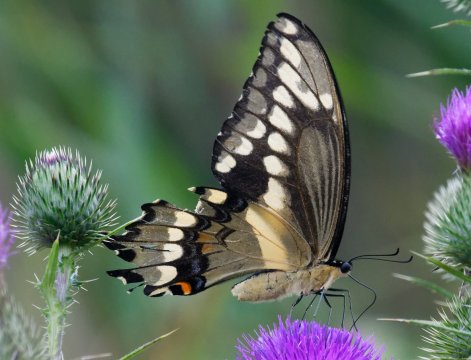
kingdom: Animalia
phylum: Arthropoda
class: Insecta
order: Lepidoptera
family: Papilionidae
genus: Papilio
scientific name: Papilio cresphontes
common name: Eastern Giant Swallowtail
